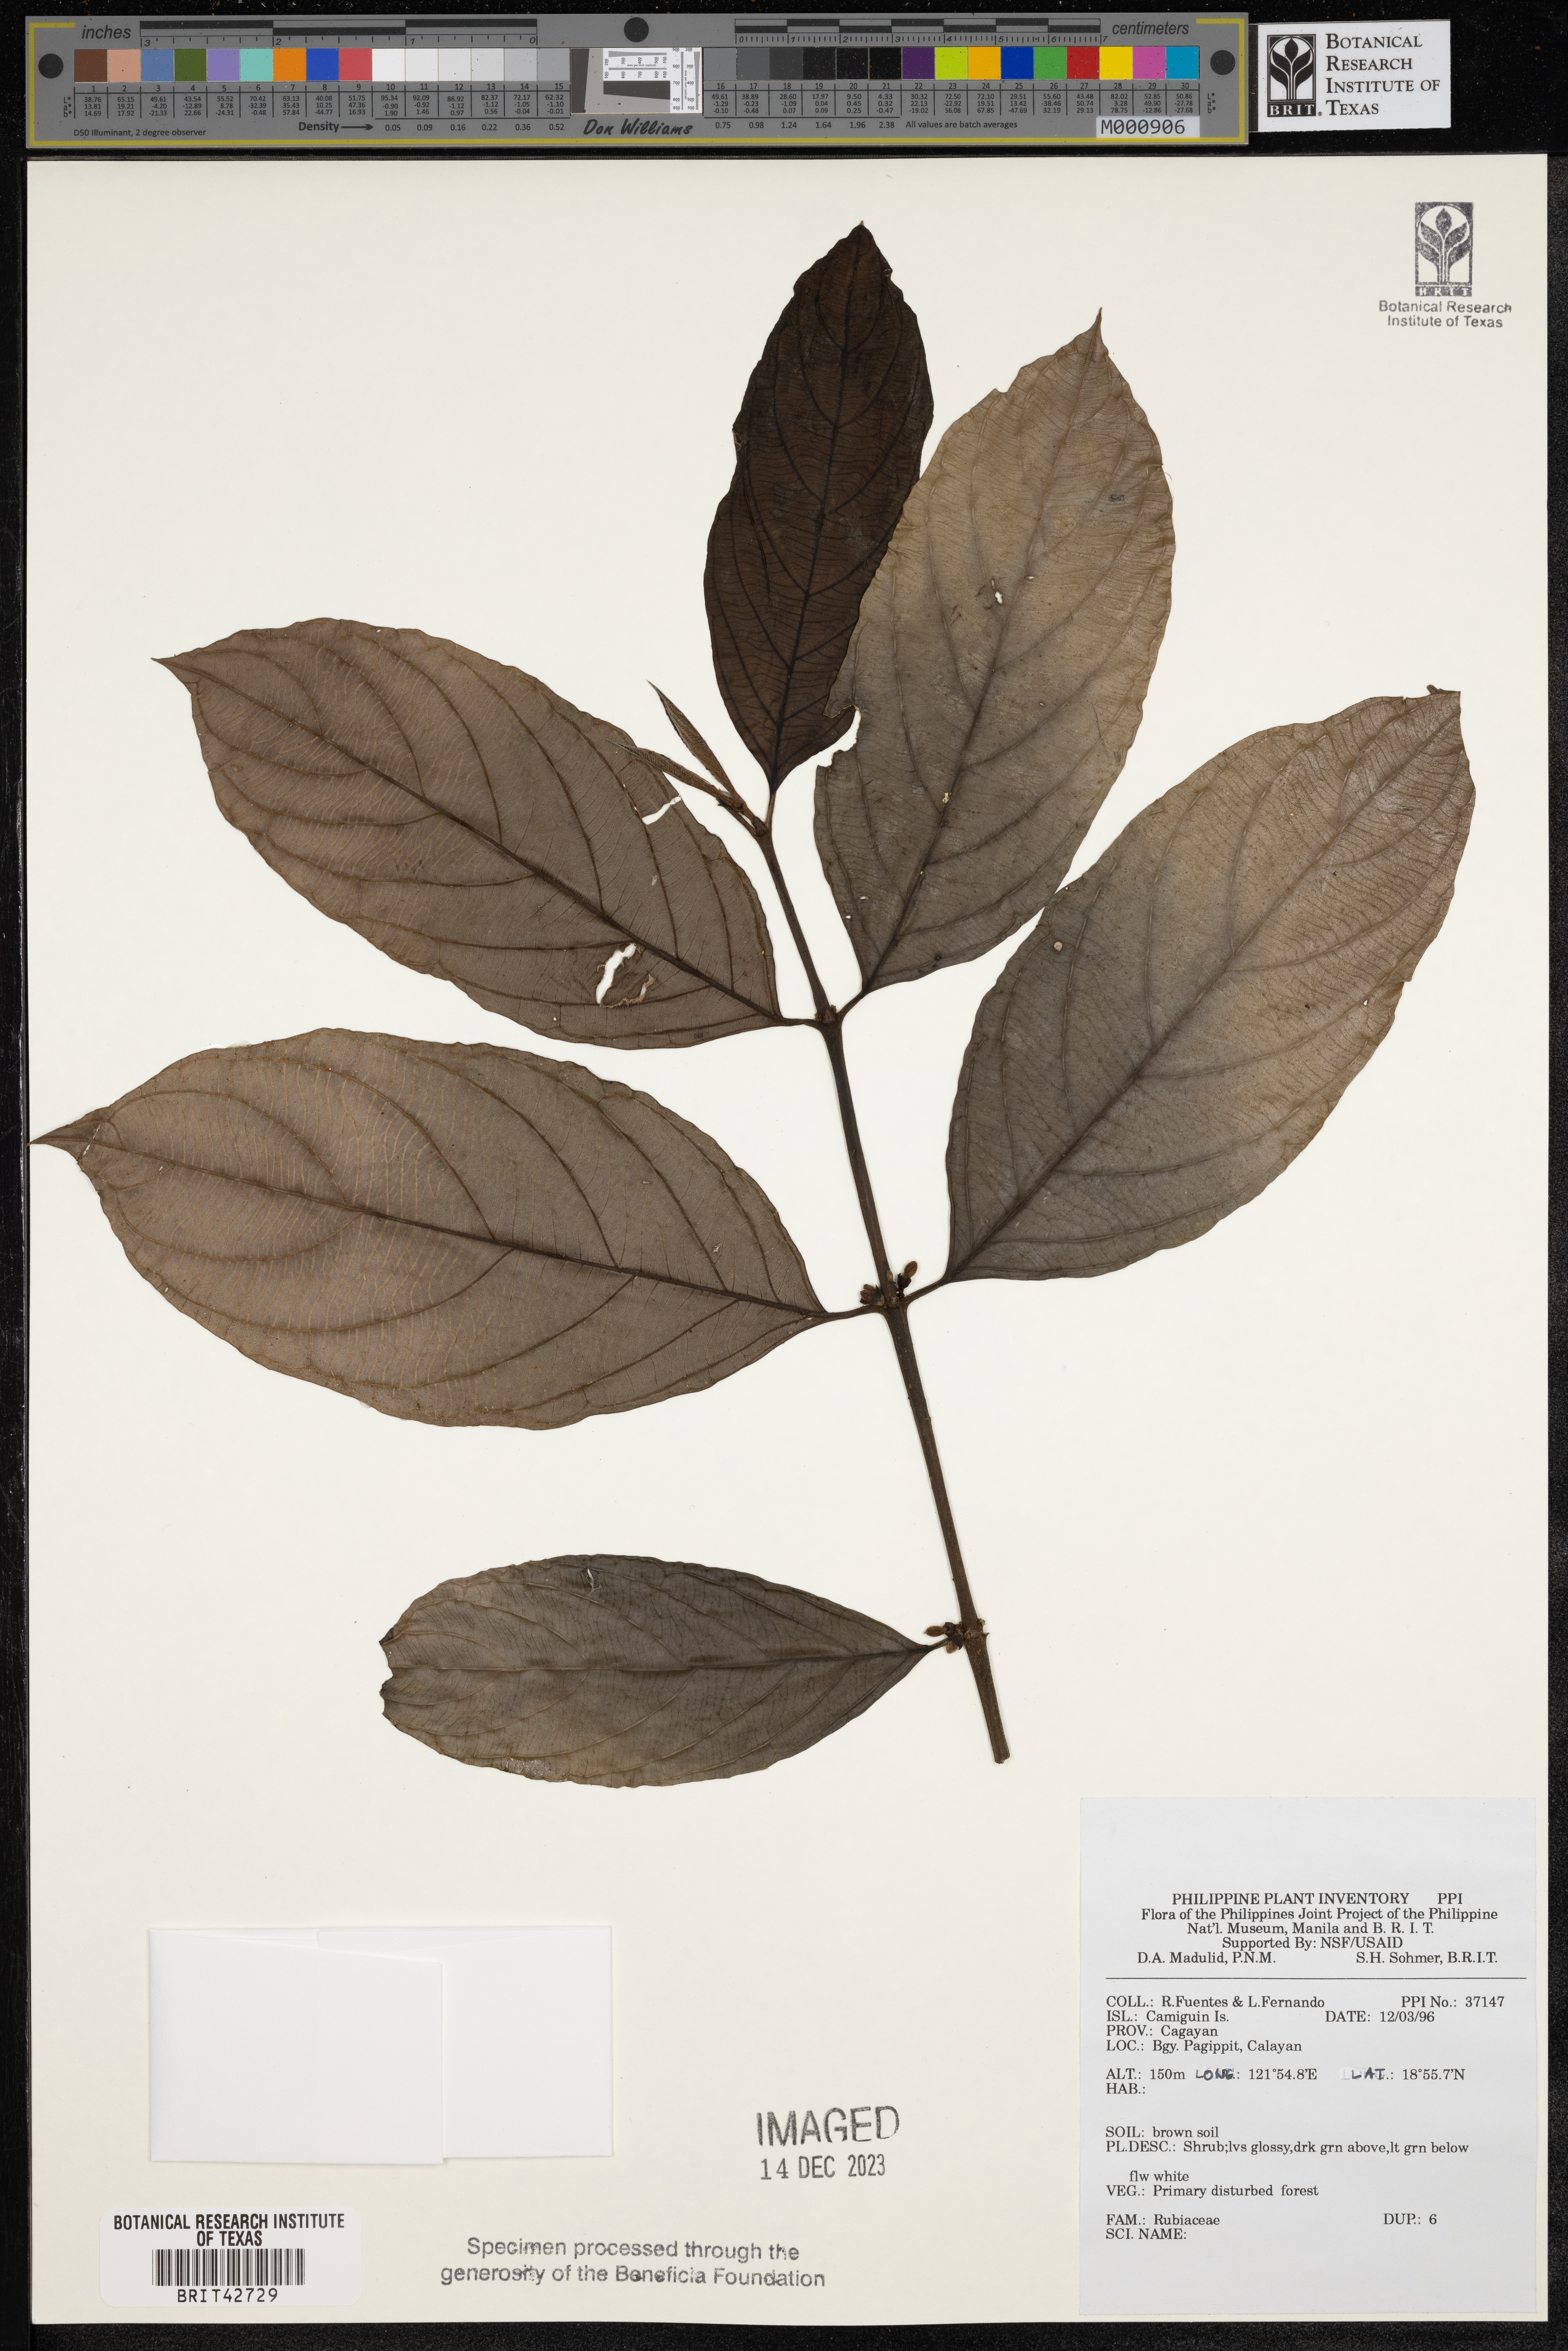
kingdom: Plantae
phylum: Tracheophyta
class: Magnoliopsida
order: Gentianales
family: Rubiaceae
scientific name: Rubiaceae
